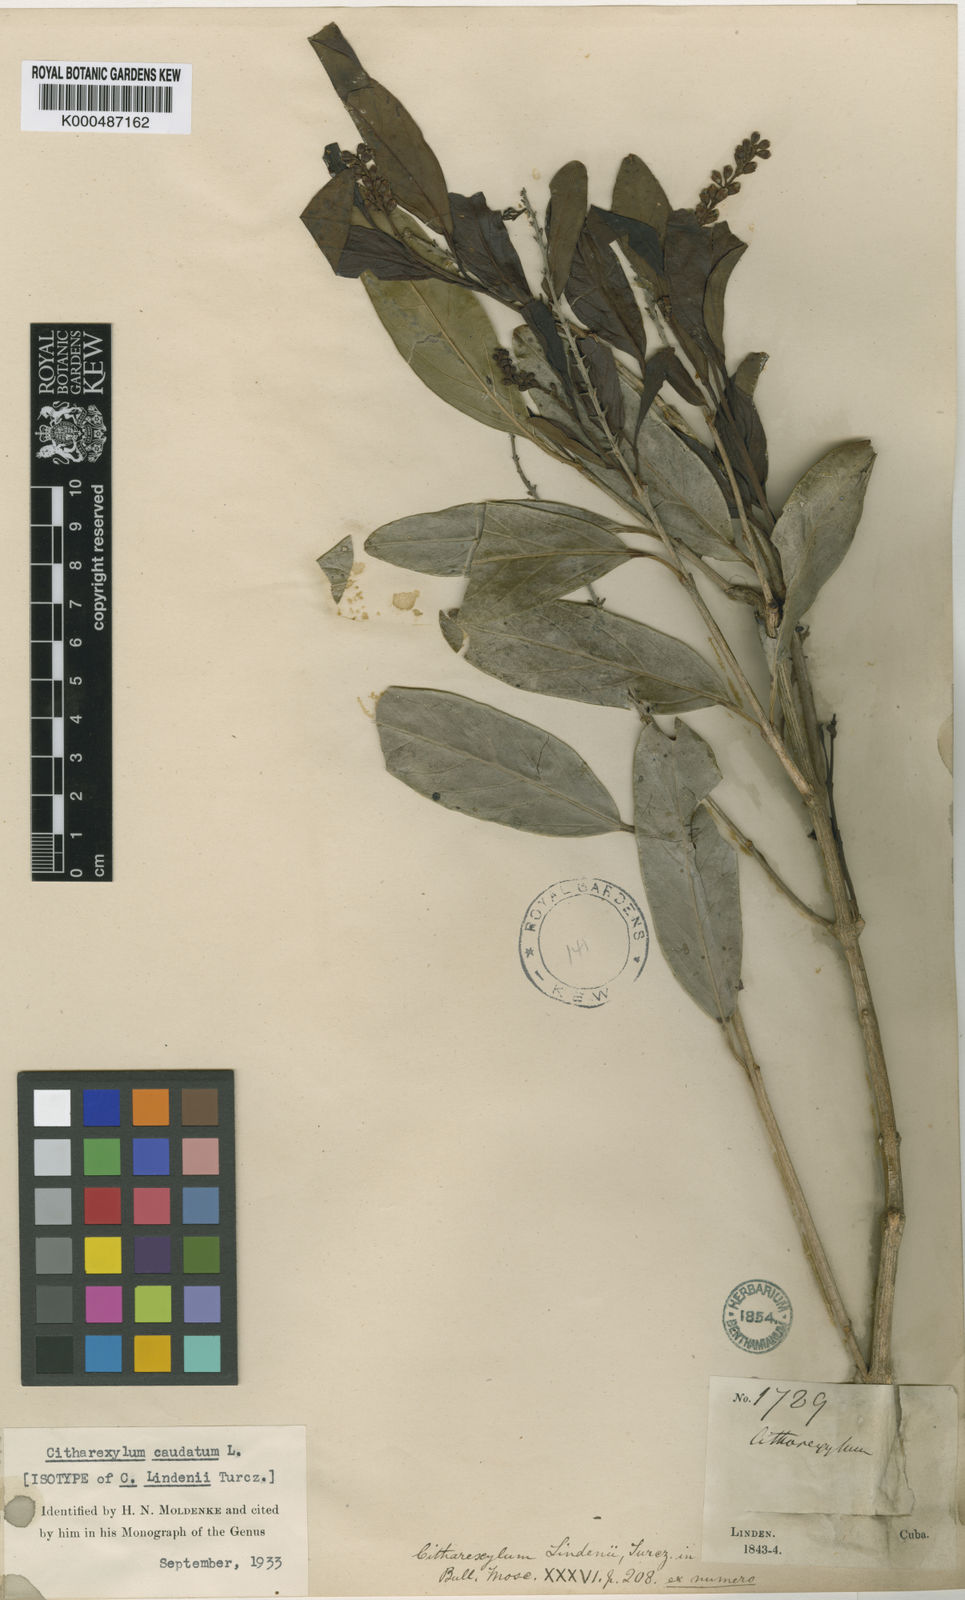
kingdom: Plantae
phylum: Tracheophyta
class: Magnoliopsida
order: Lamiales
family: Verbenaceae
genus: Citharexylum
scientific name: Citharexylum caudatum
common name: Fiddlewood
